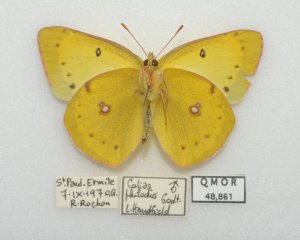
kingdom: Animalia
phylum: Arthropoda
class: Insecta
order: Lepidoptera
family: Pieridae
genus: Colias
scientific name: Colias philodice
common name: Clouded Sulphur
